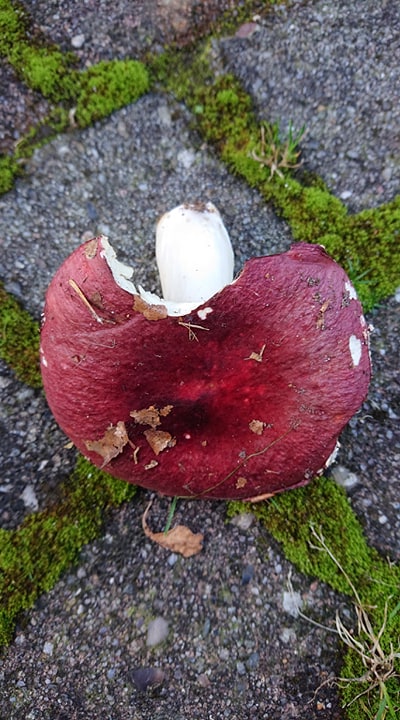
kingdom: Fungi
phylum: Basidiomycota
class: Agaricomycetes
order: Russulales
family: Russulaceae
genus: Russula
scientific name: Russula
